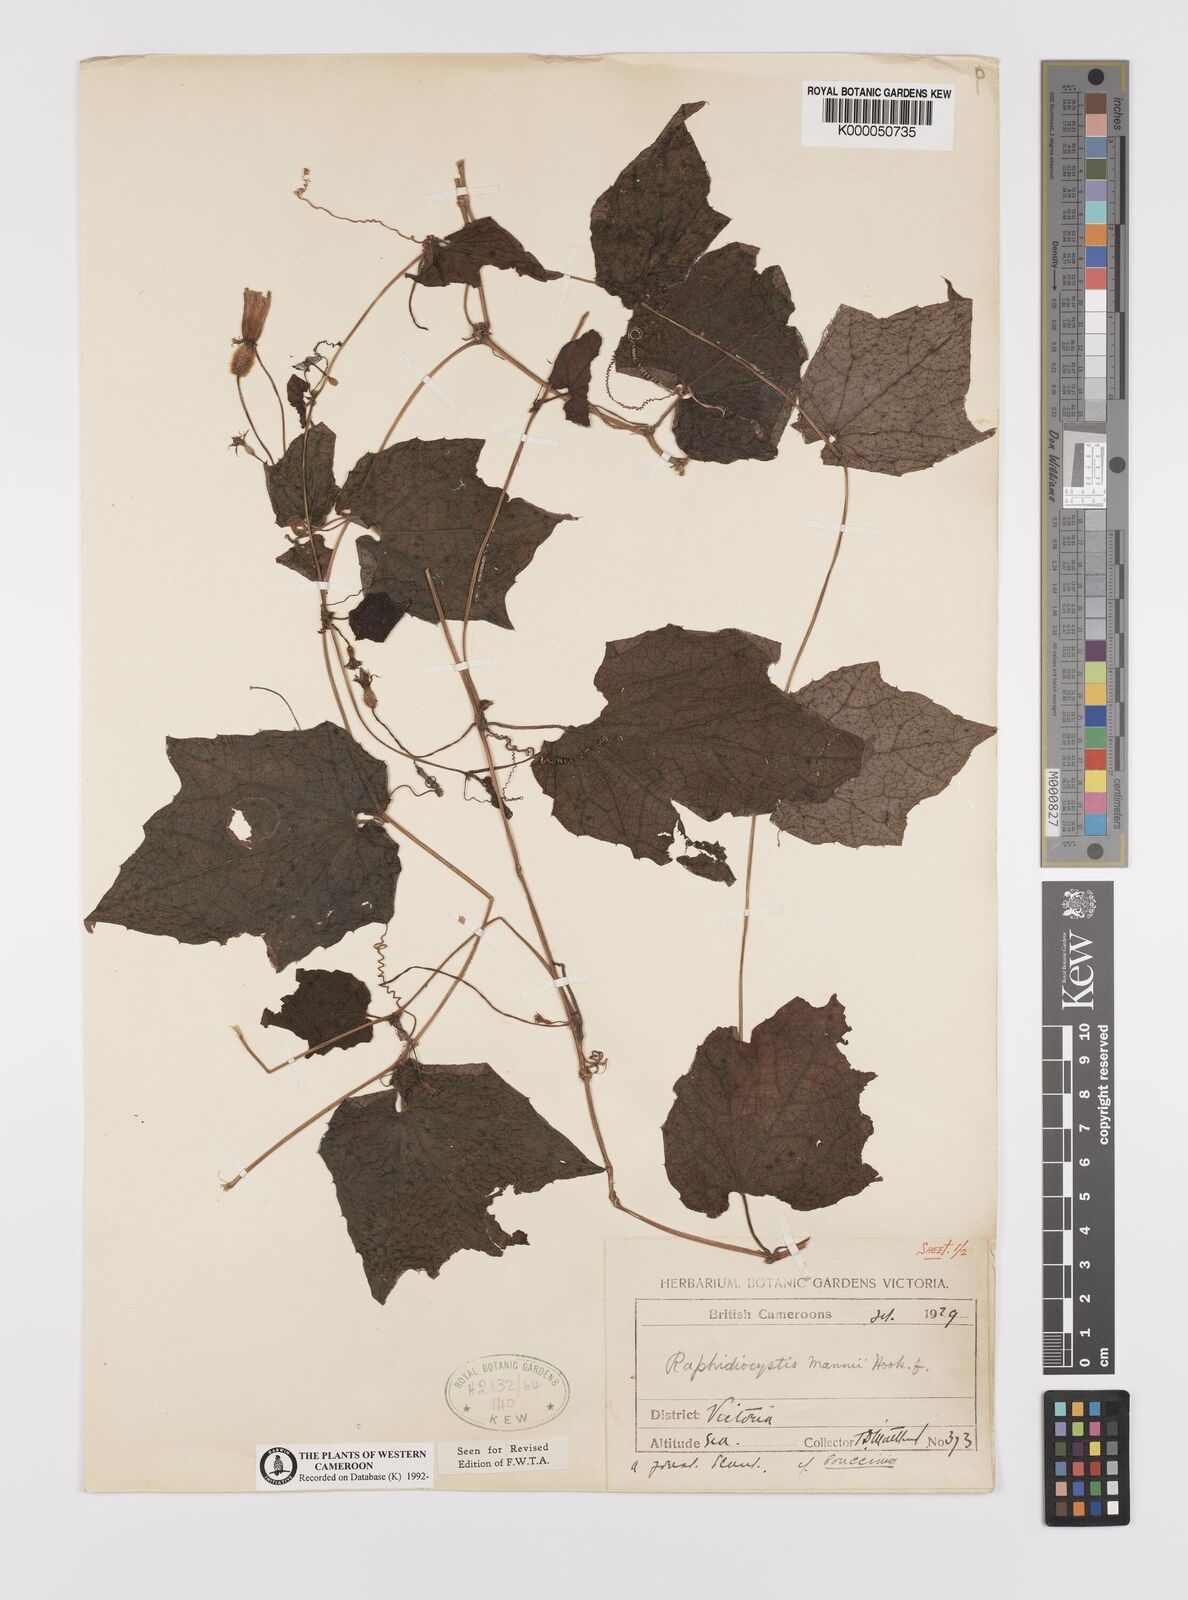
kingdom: Plantae
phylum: Tracheophyta
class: Magnoliopsida
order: Cucurbitales
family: Cucurbitaceae
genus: Raphidiocystis
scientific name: Raphidiocystis mannii
